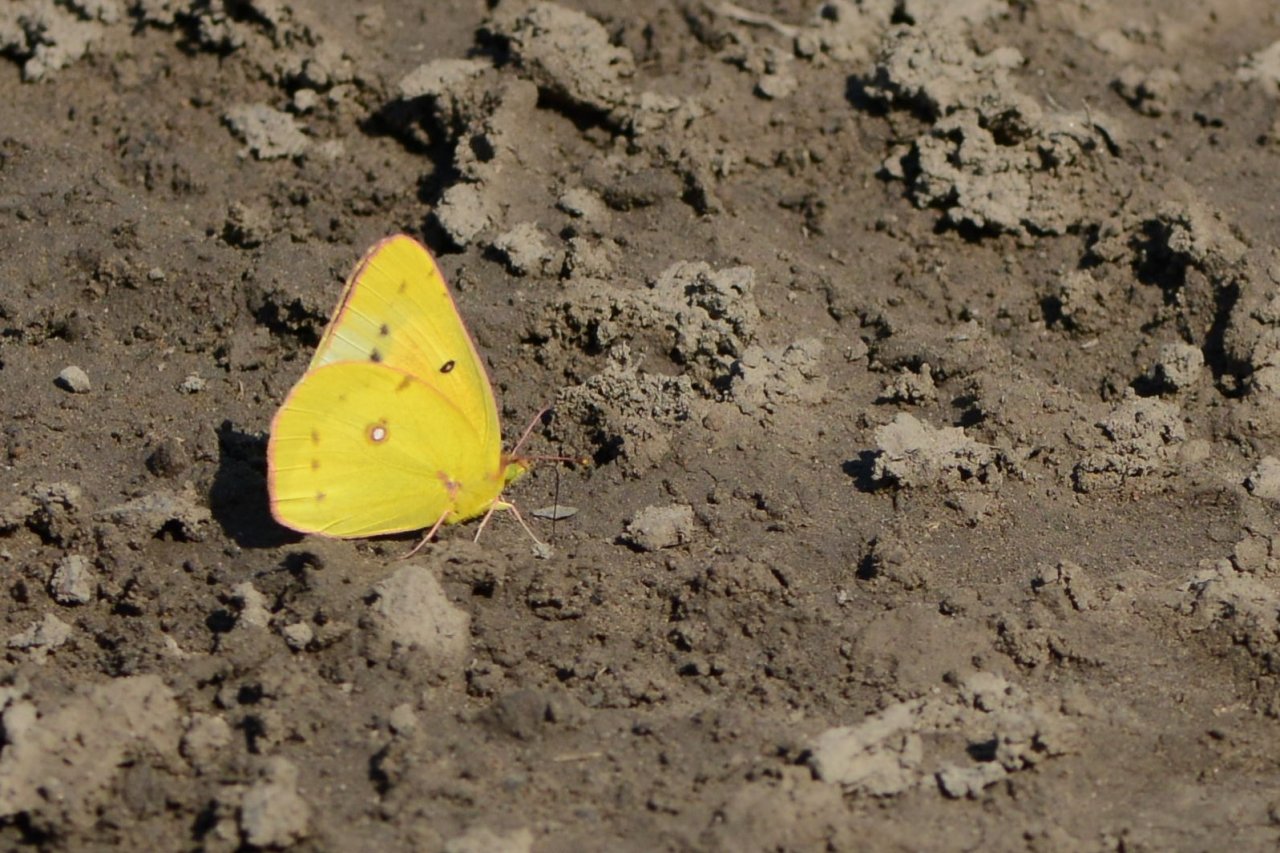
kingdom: Animalia
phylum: Arthropoda
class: Insecta
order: Lepidoptera
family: Pieridae
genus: Colias
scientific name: Colias eurytheme
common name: Orange Sulphur
